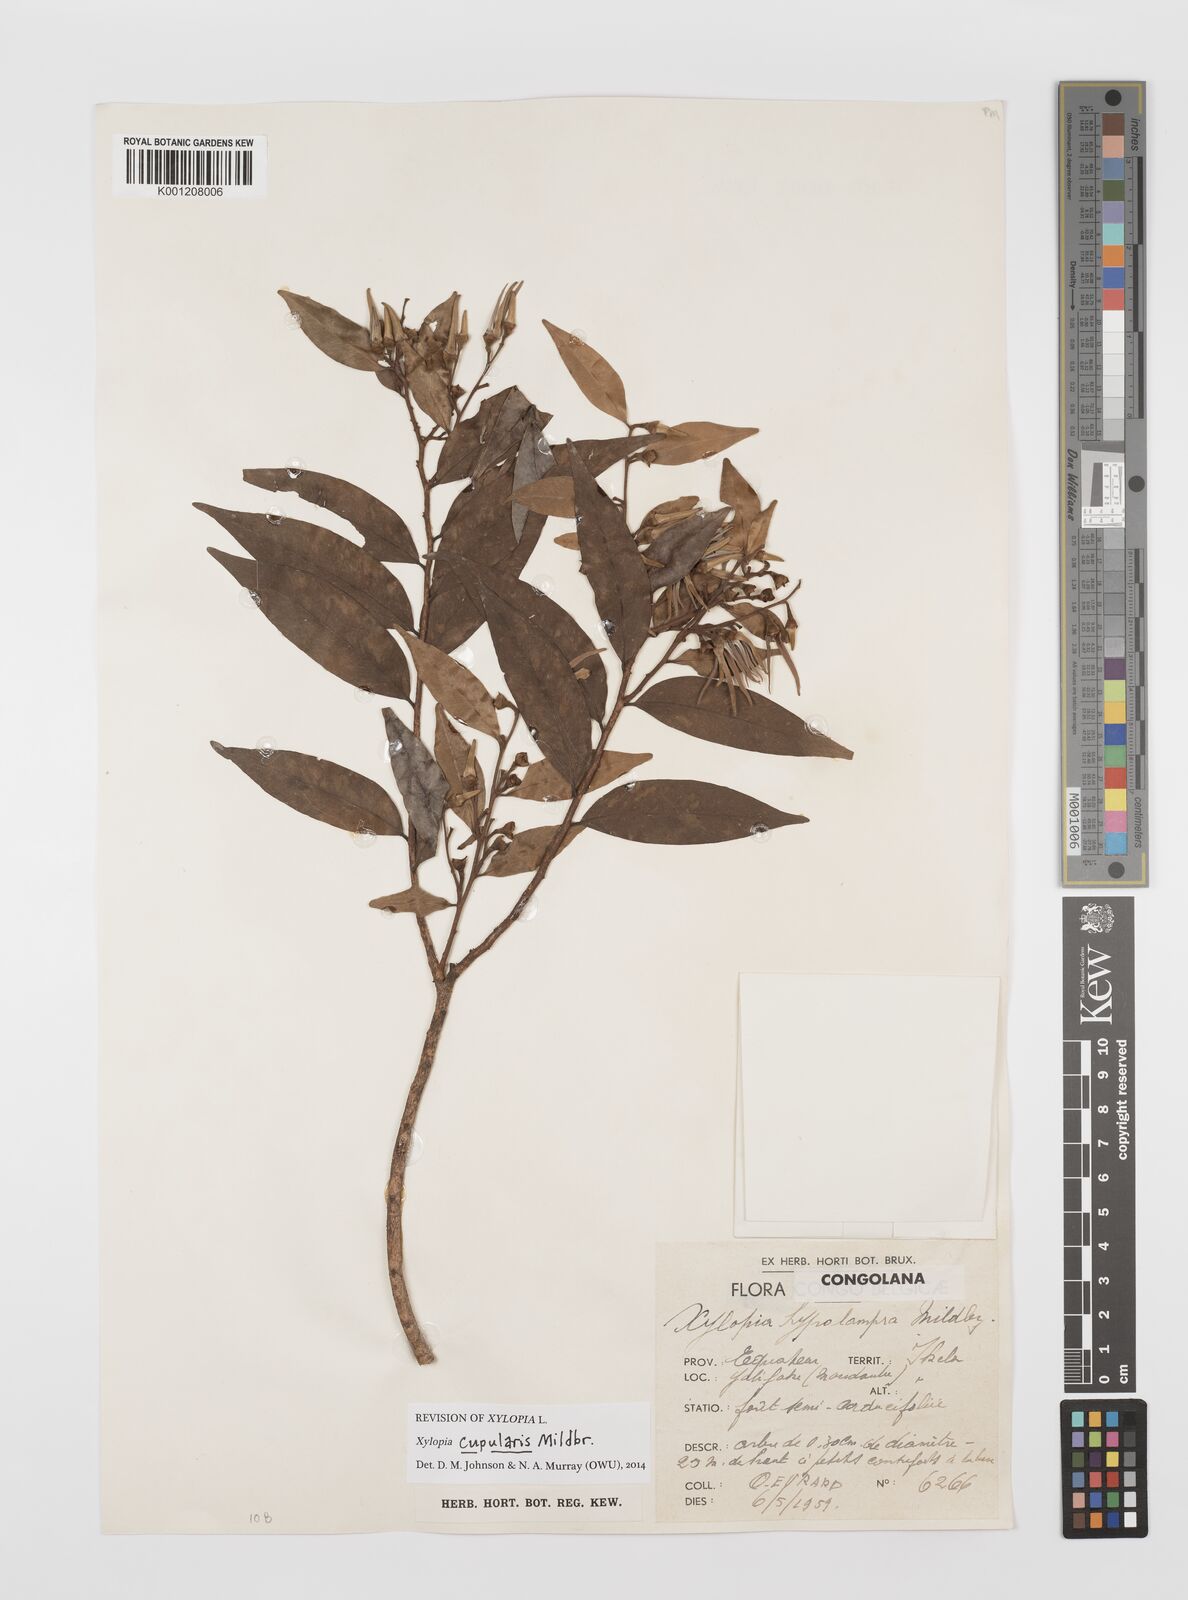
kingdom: Plantae
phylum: Tracheophyta
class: Magnoliopsida
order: Magnoliales
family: Annonaceae
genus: Xylopia
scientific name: Xylopia cupularis
